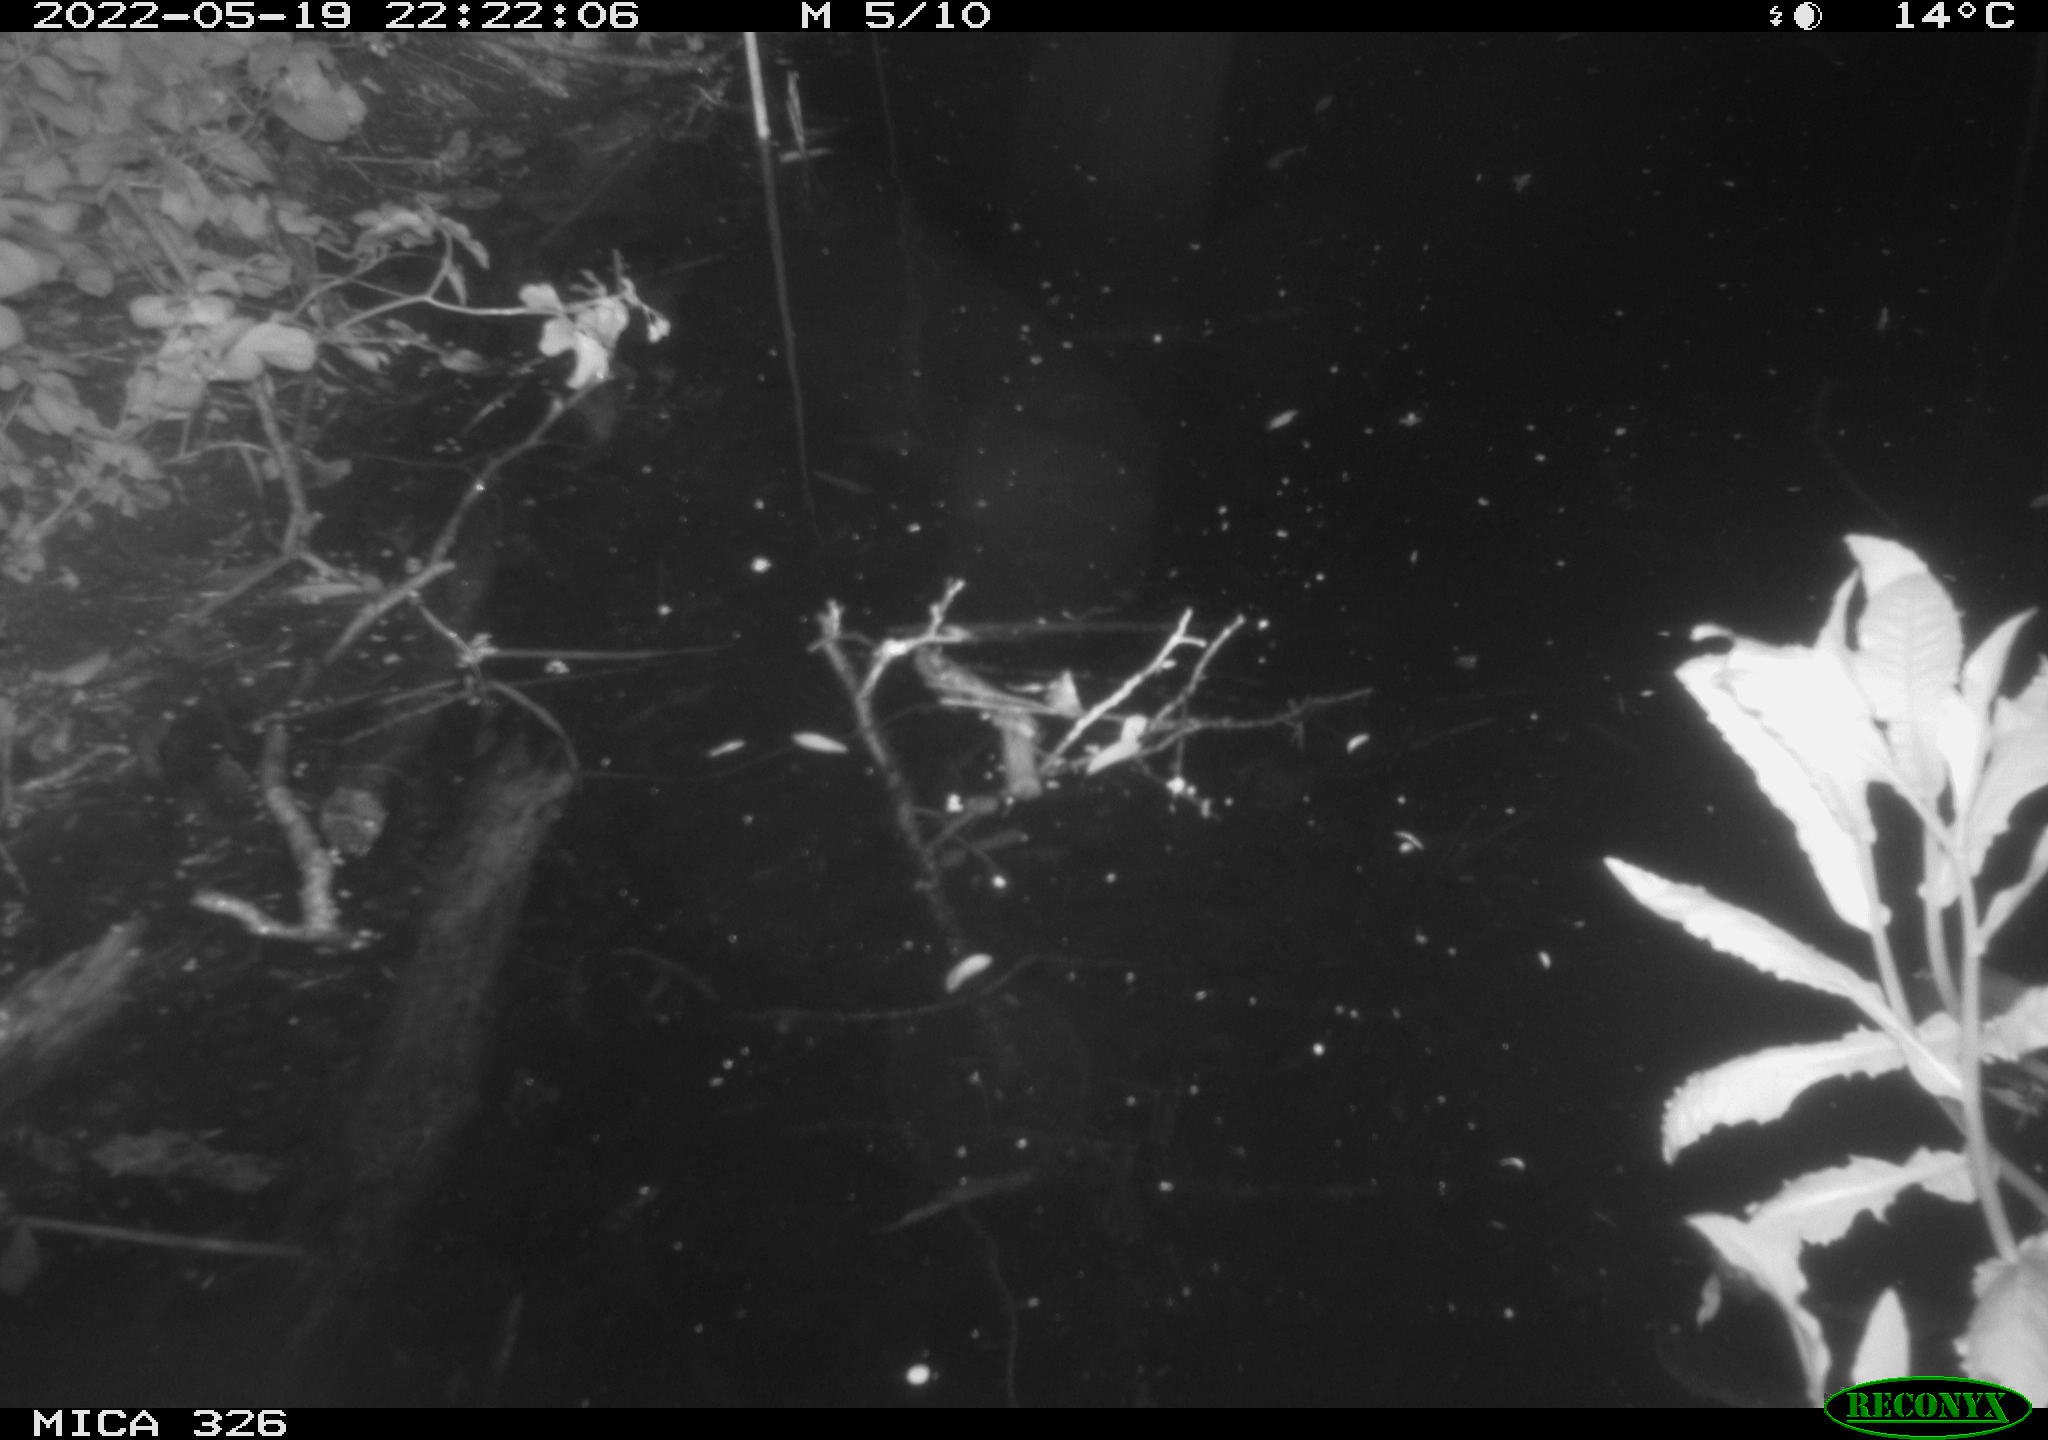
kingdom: Animalia
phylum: Chordata
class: Mammalia
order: Rodentia
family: Muridae
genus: Rattus
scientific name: Rattus norvegicus
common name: Brown rat
